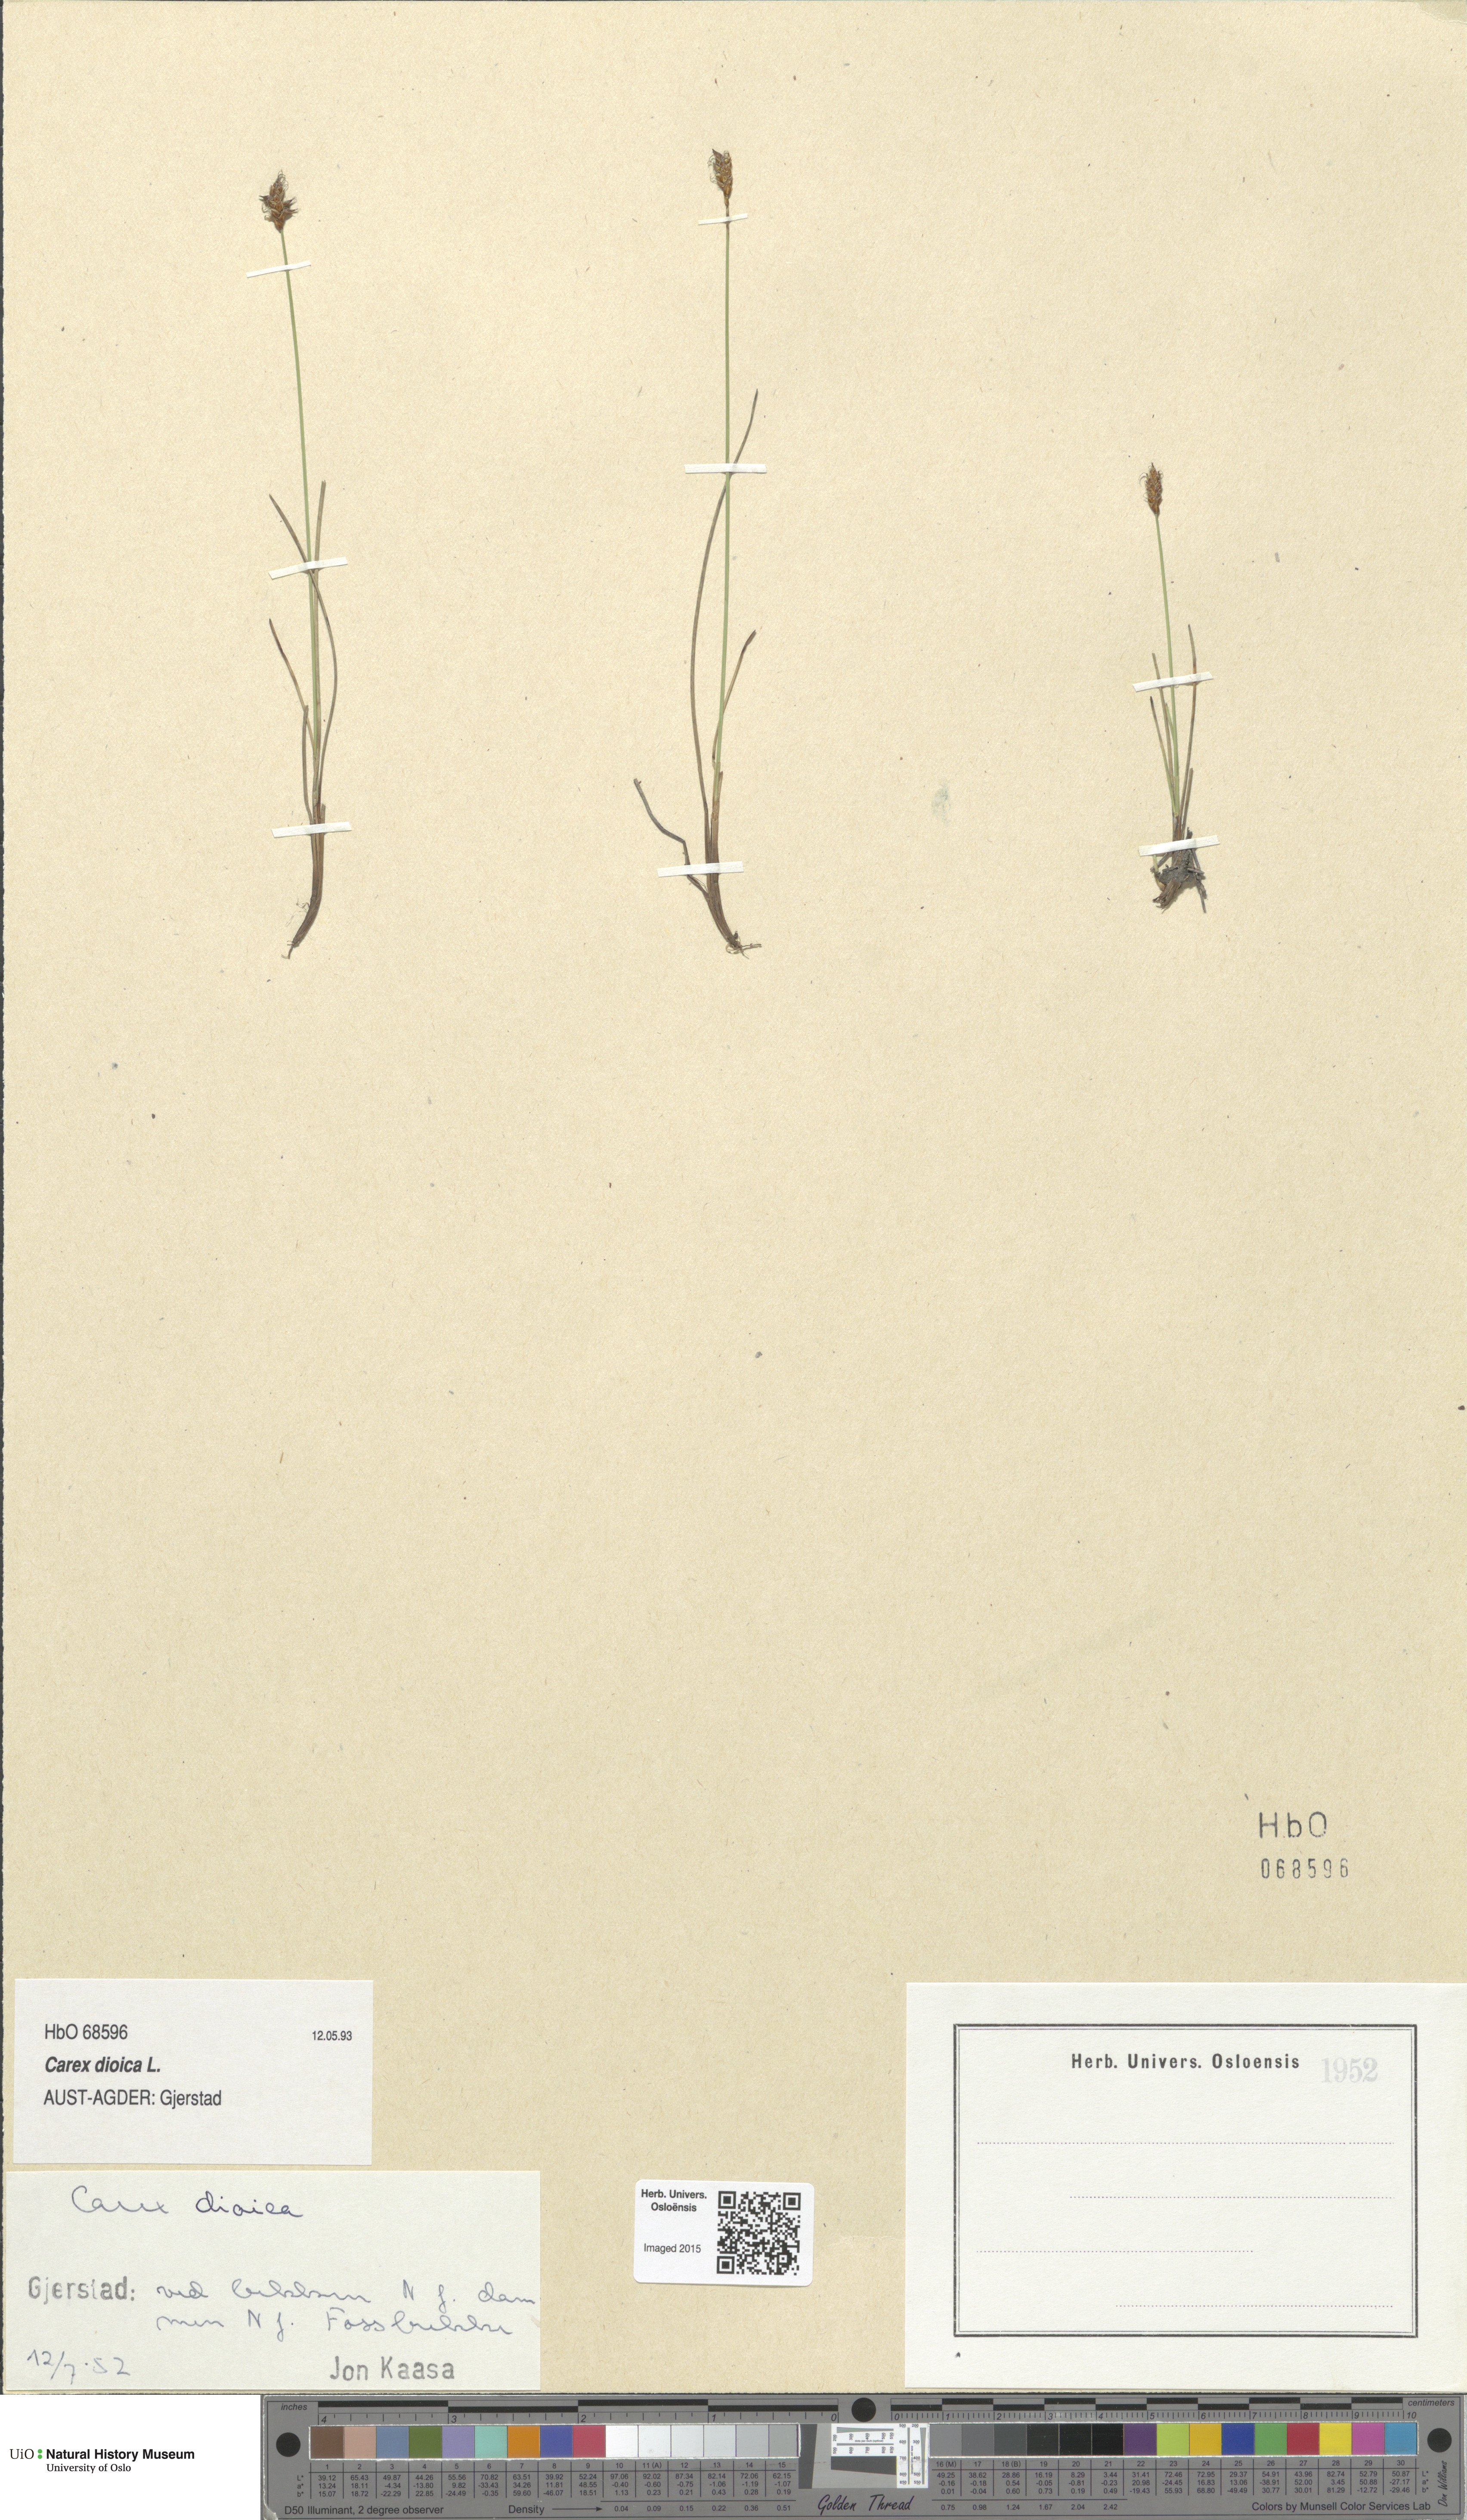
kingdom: Plantae
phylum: Tracheophyta
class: Liliopsida
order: Poales
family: Cyperaceae
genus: Carex
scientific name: Carex dioica
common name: Dioecious sedge
